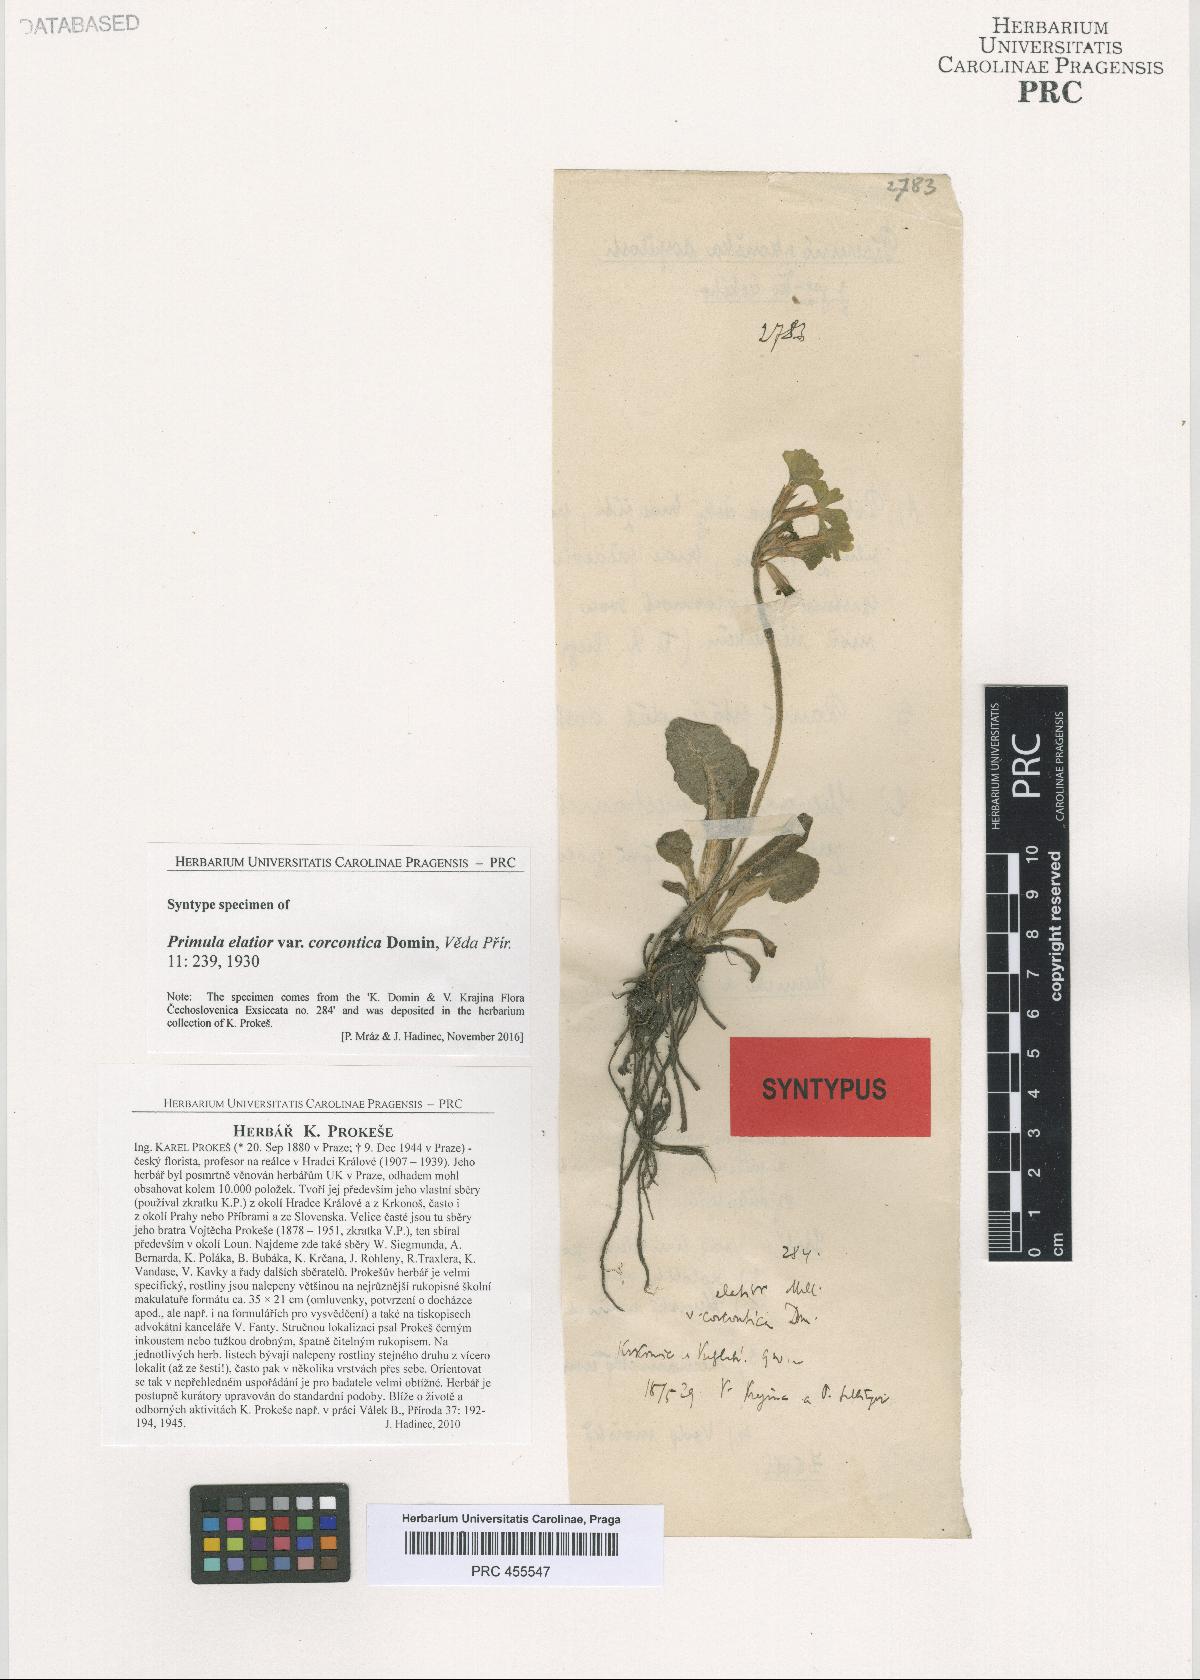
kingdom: Plantae
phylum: Tracheophyta
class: Magnoliopsida
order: Ericales
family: Primulaceae
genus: Primula
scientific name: Primula elatior
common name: Oxlip
